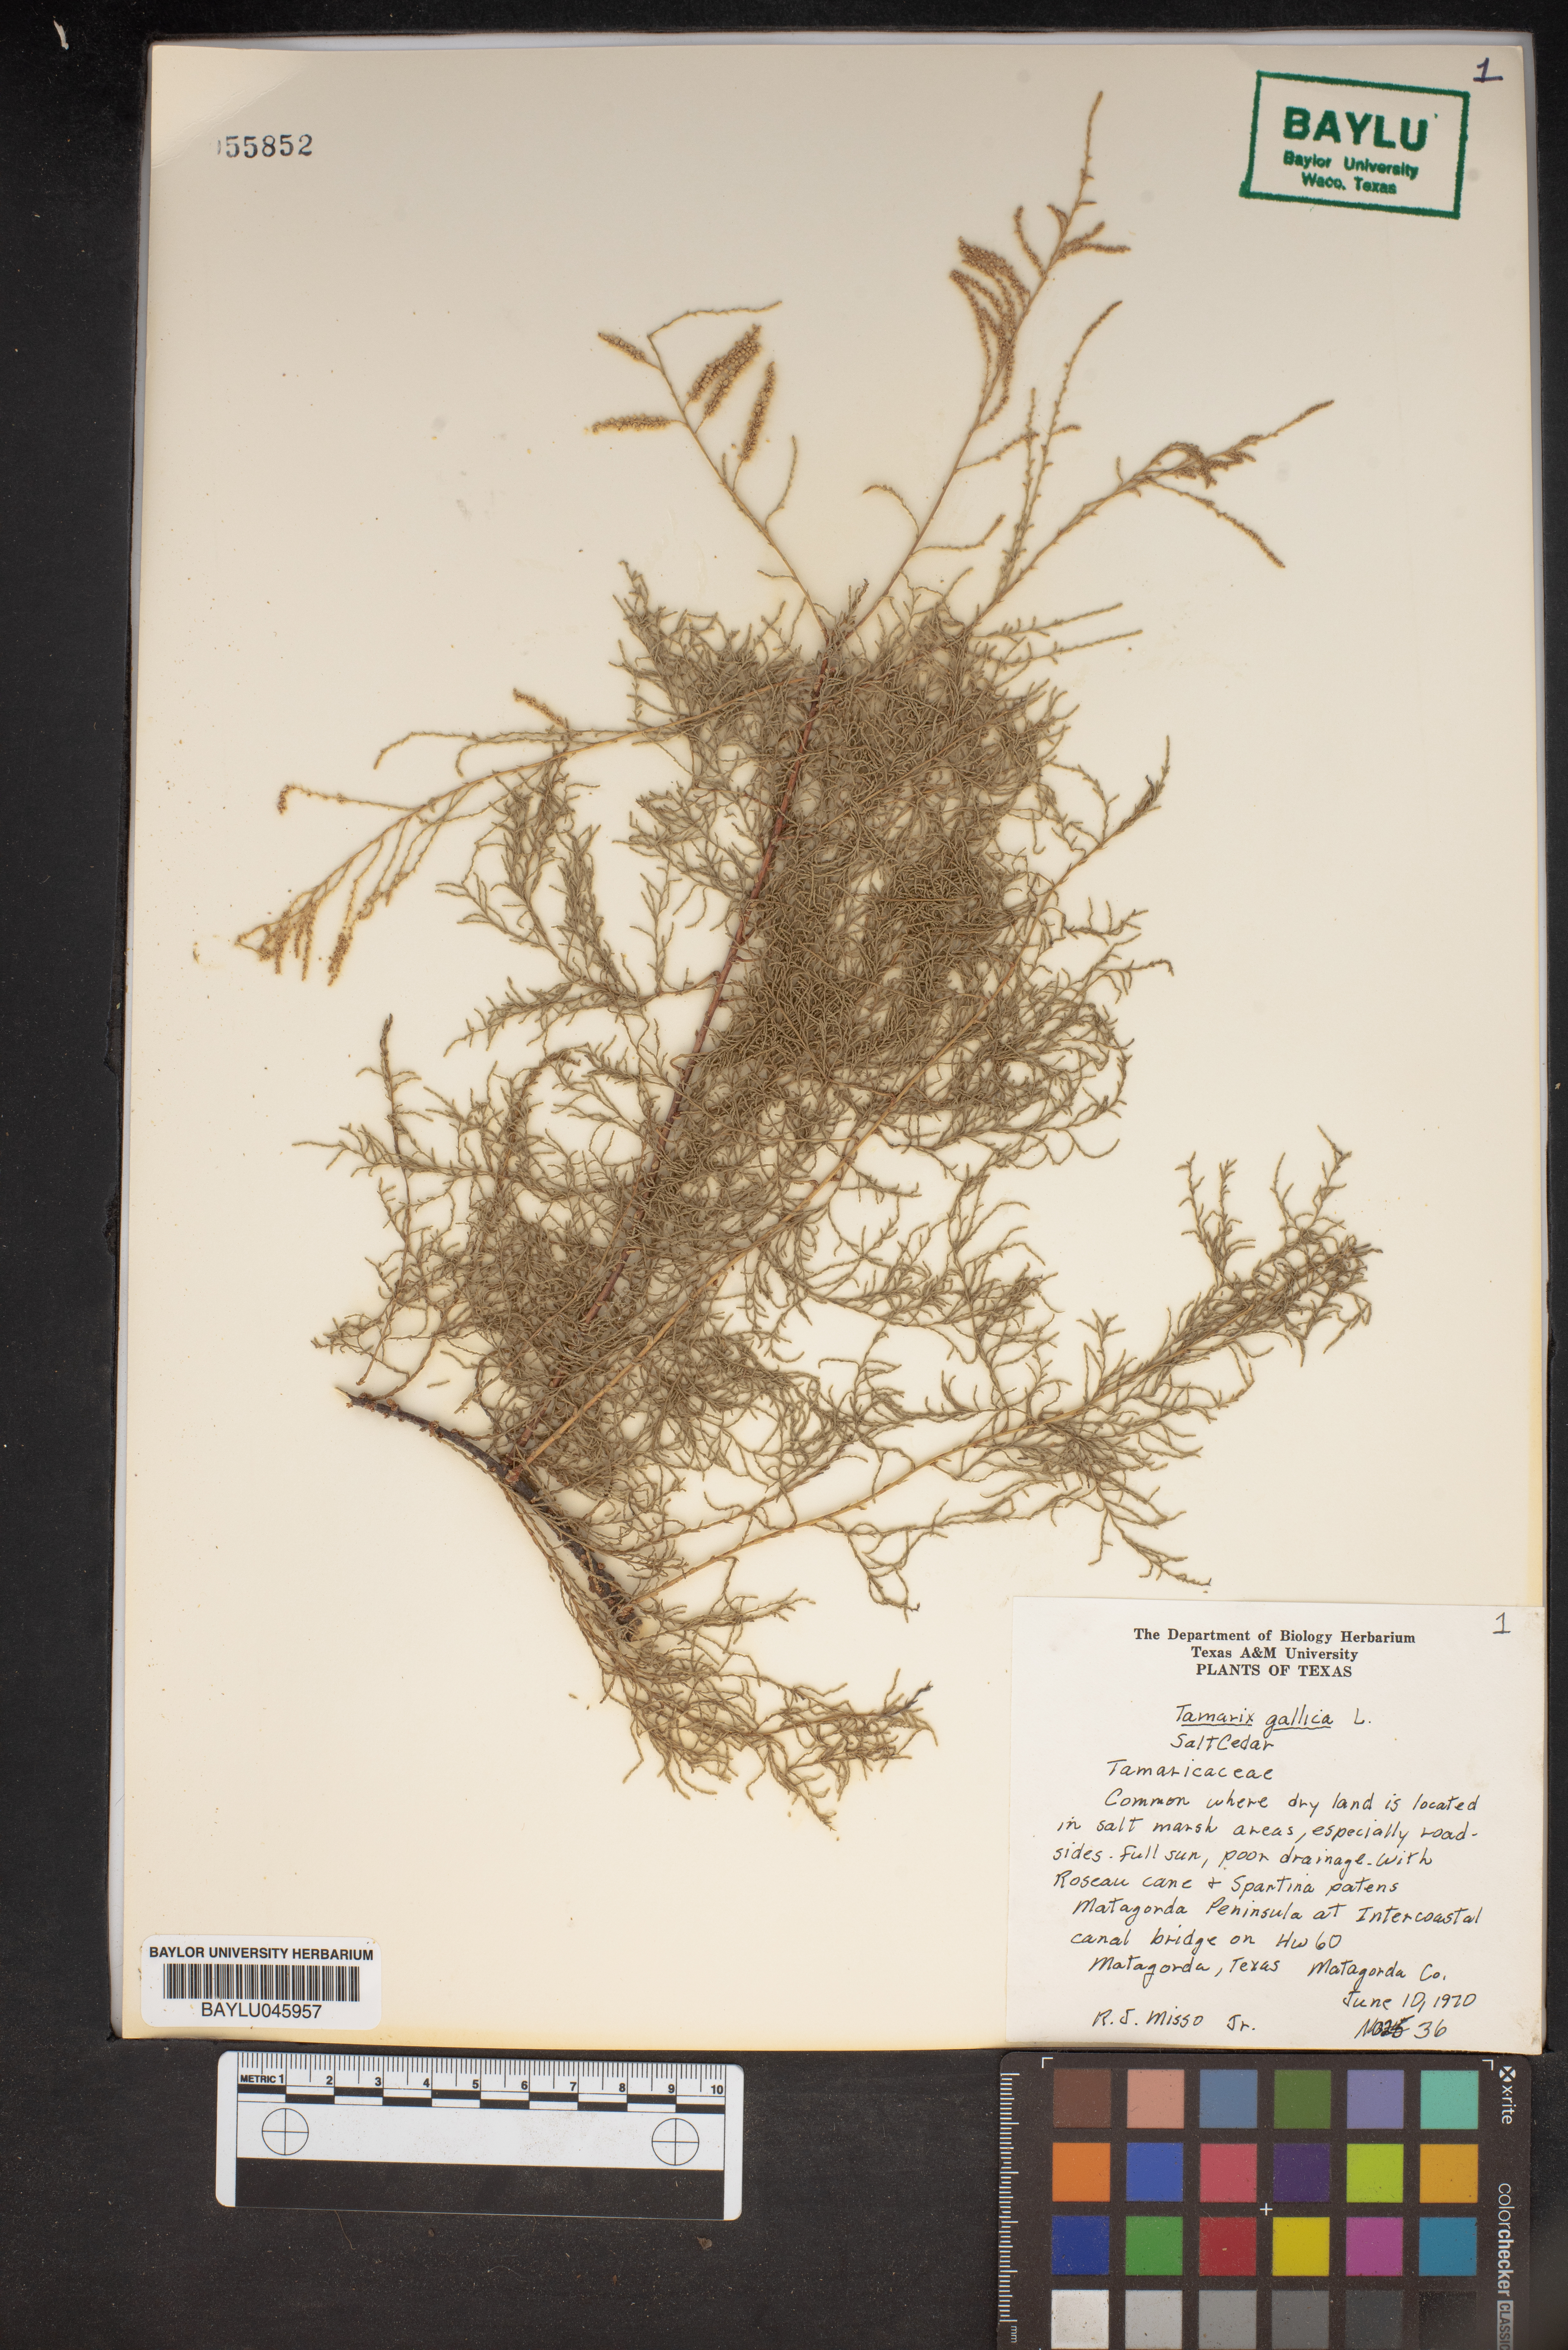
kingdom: Plantae
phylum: Tracheophyta
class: Magnoliopsida
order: Caryophyllales
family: Tamaricaceae
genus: Tamarix
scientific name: Tamarix gallica
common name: Tamarisk
